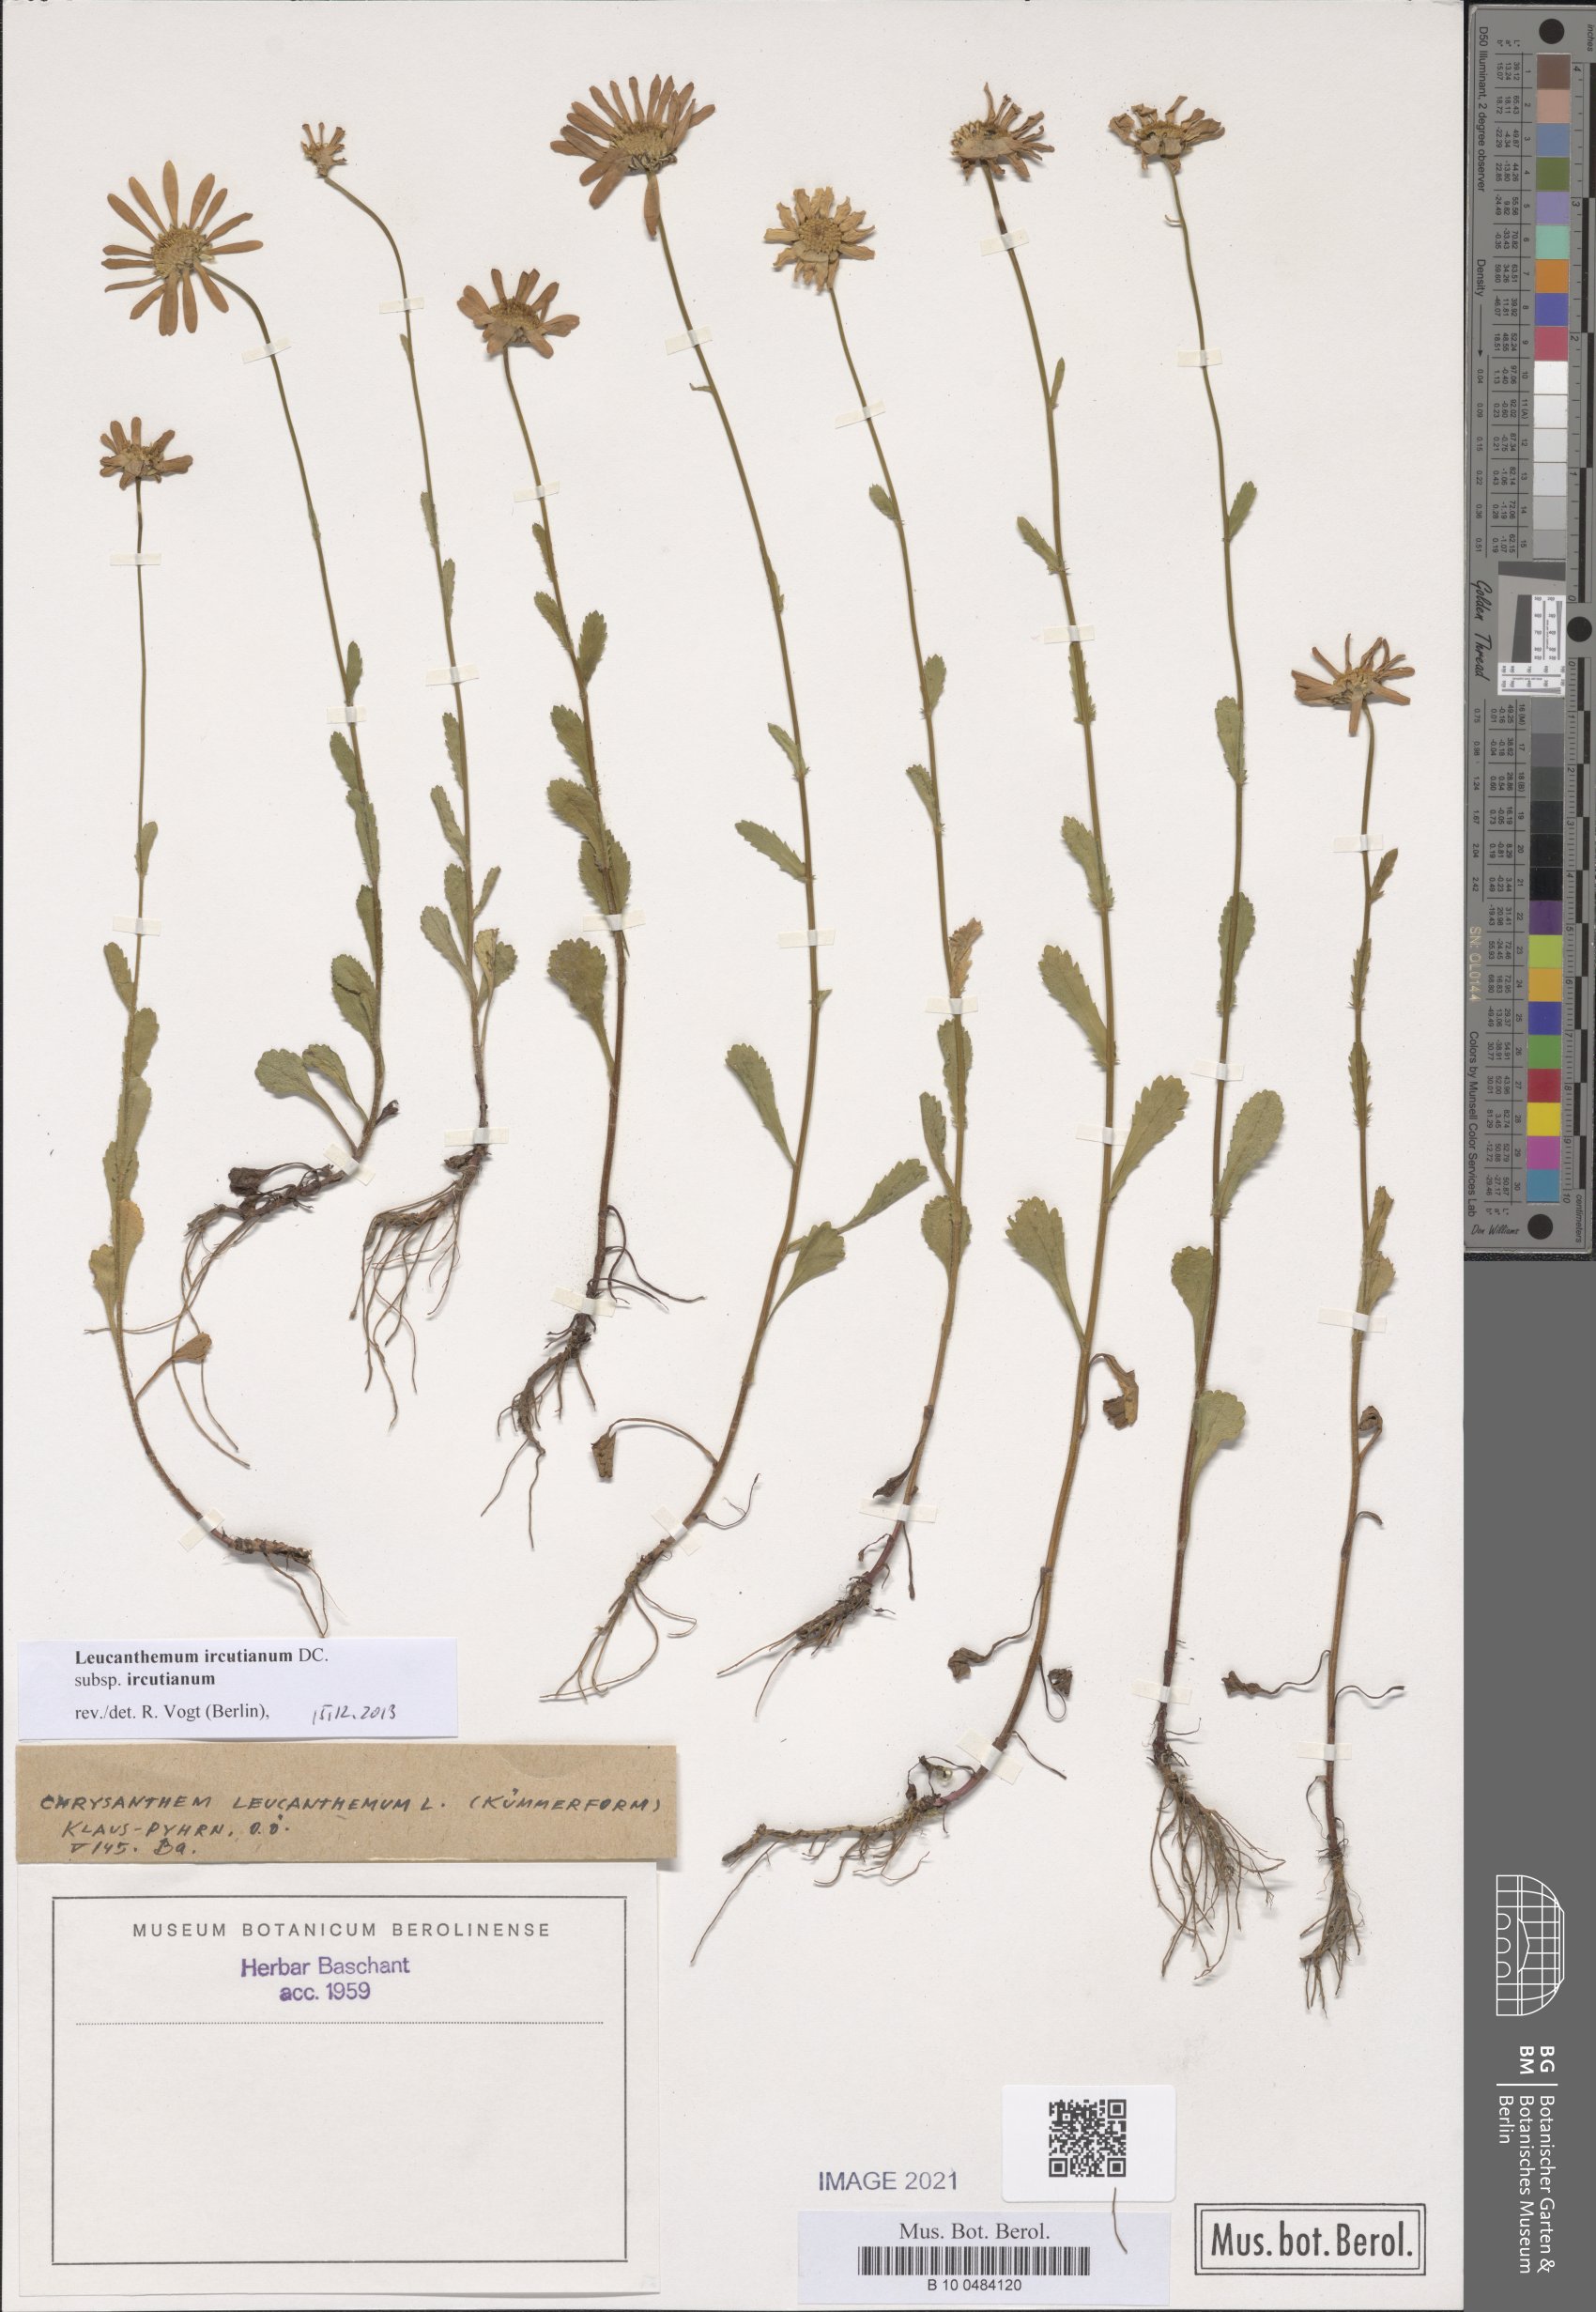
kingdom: Plantae
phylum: Tracheophyta
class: Magnoliopsida
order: Asterales
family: Asteraceae
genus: Leucanthemum
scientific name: Leucanthemum ircutianum
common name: Daisy
